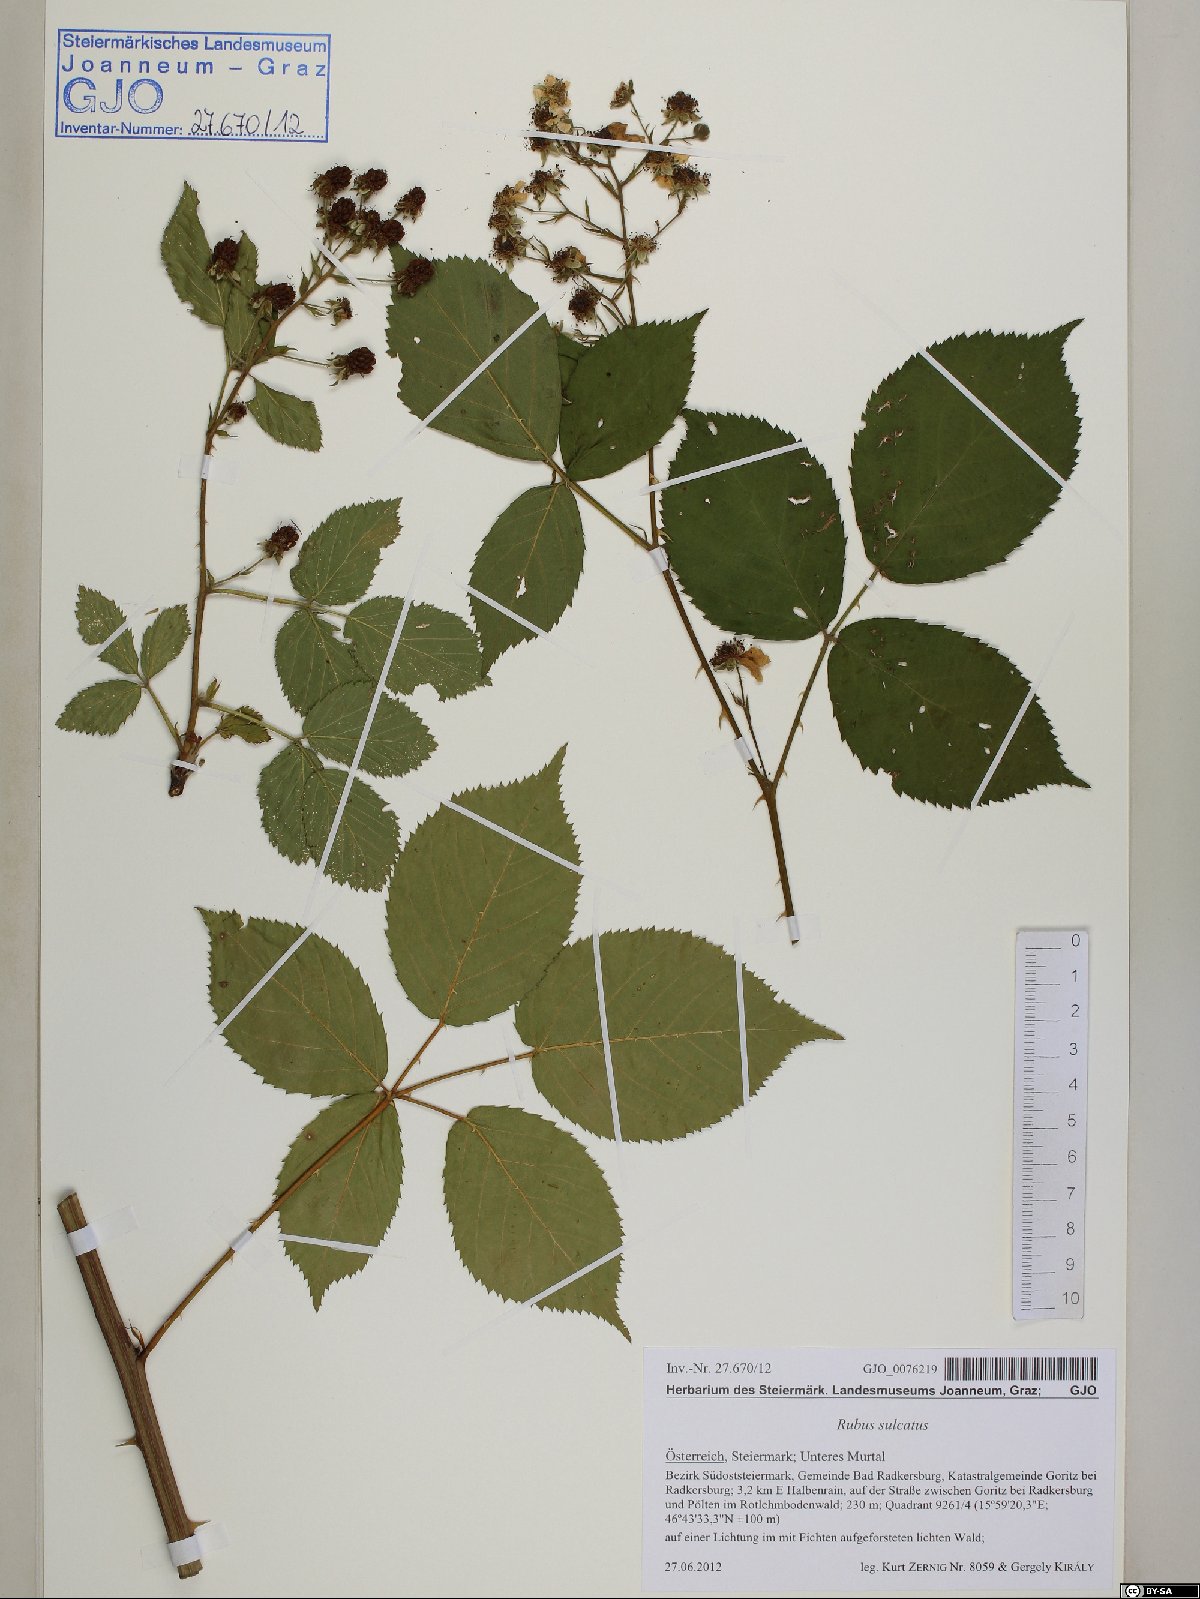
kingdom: Plantae
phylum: Tracheophyta
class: Magnoliopsida
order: Rosales
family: Rosaceae
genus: Rubus
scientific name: Rubus sulcatus
